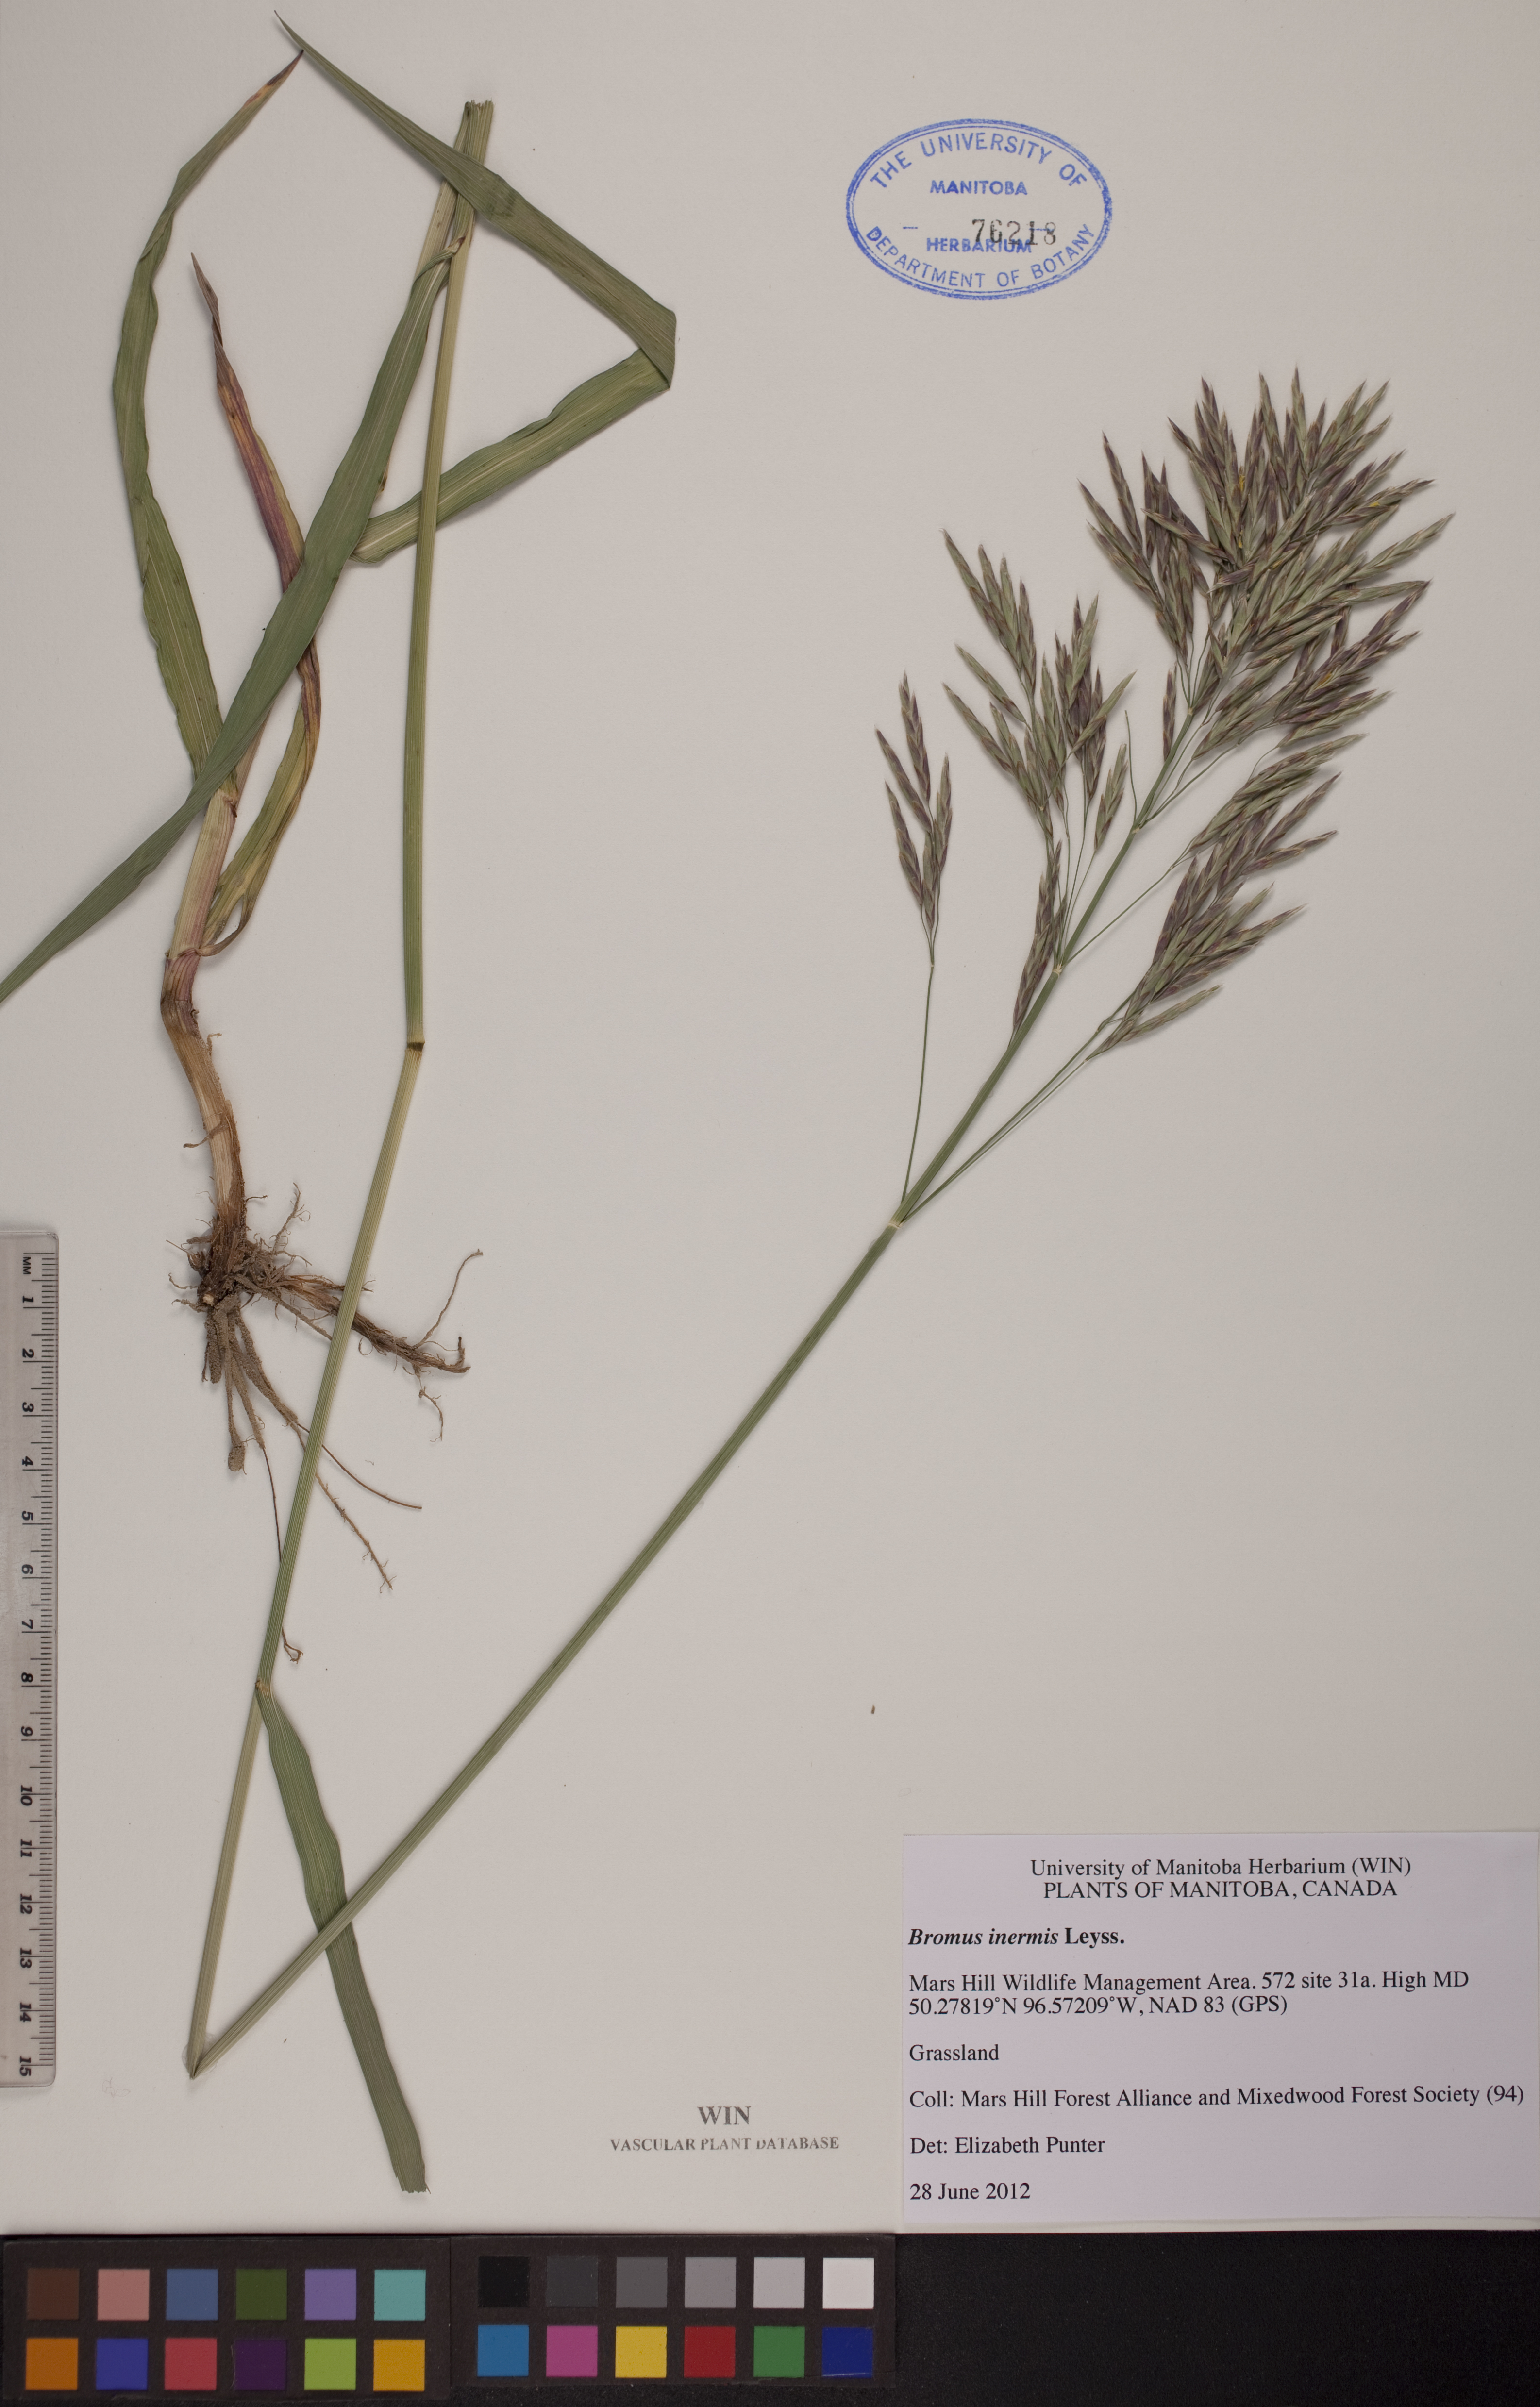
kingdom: Plantae
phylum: Tracheophyta
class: Liliopsida
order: Poales
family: Poaceae
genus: Bromus
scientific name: Bromus inermis
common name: Smooth brome
